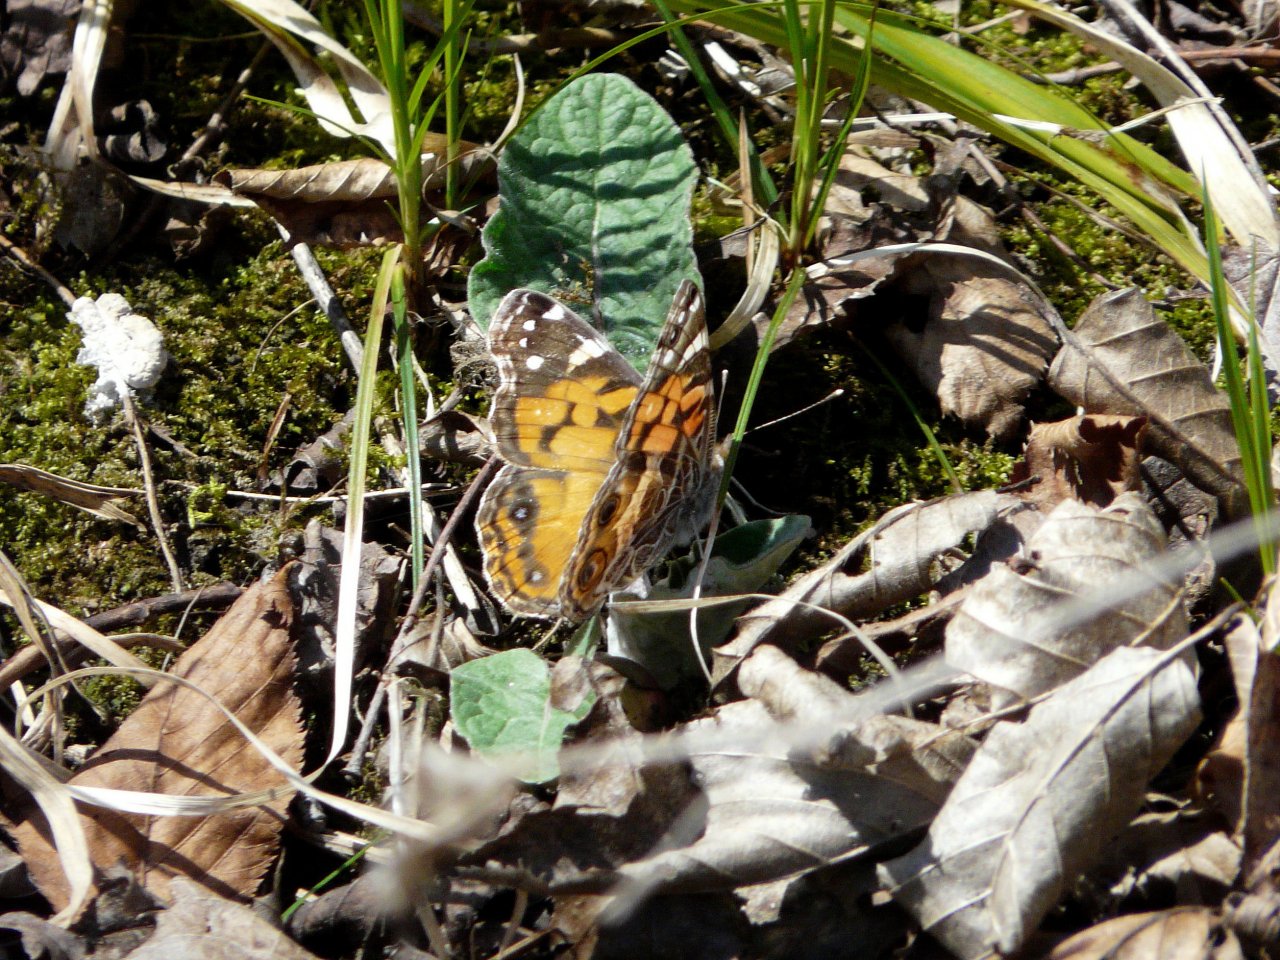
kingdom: Animalia
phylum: Arthropoda
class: Insecta
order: Lepidoptera
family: Nymphalidae
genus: Vanessa
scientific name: Vanessa virginiensis
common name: American Lady
